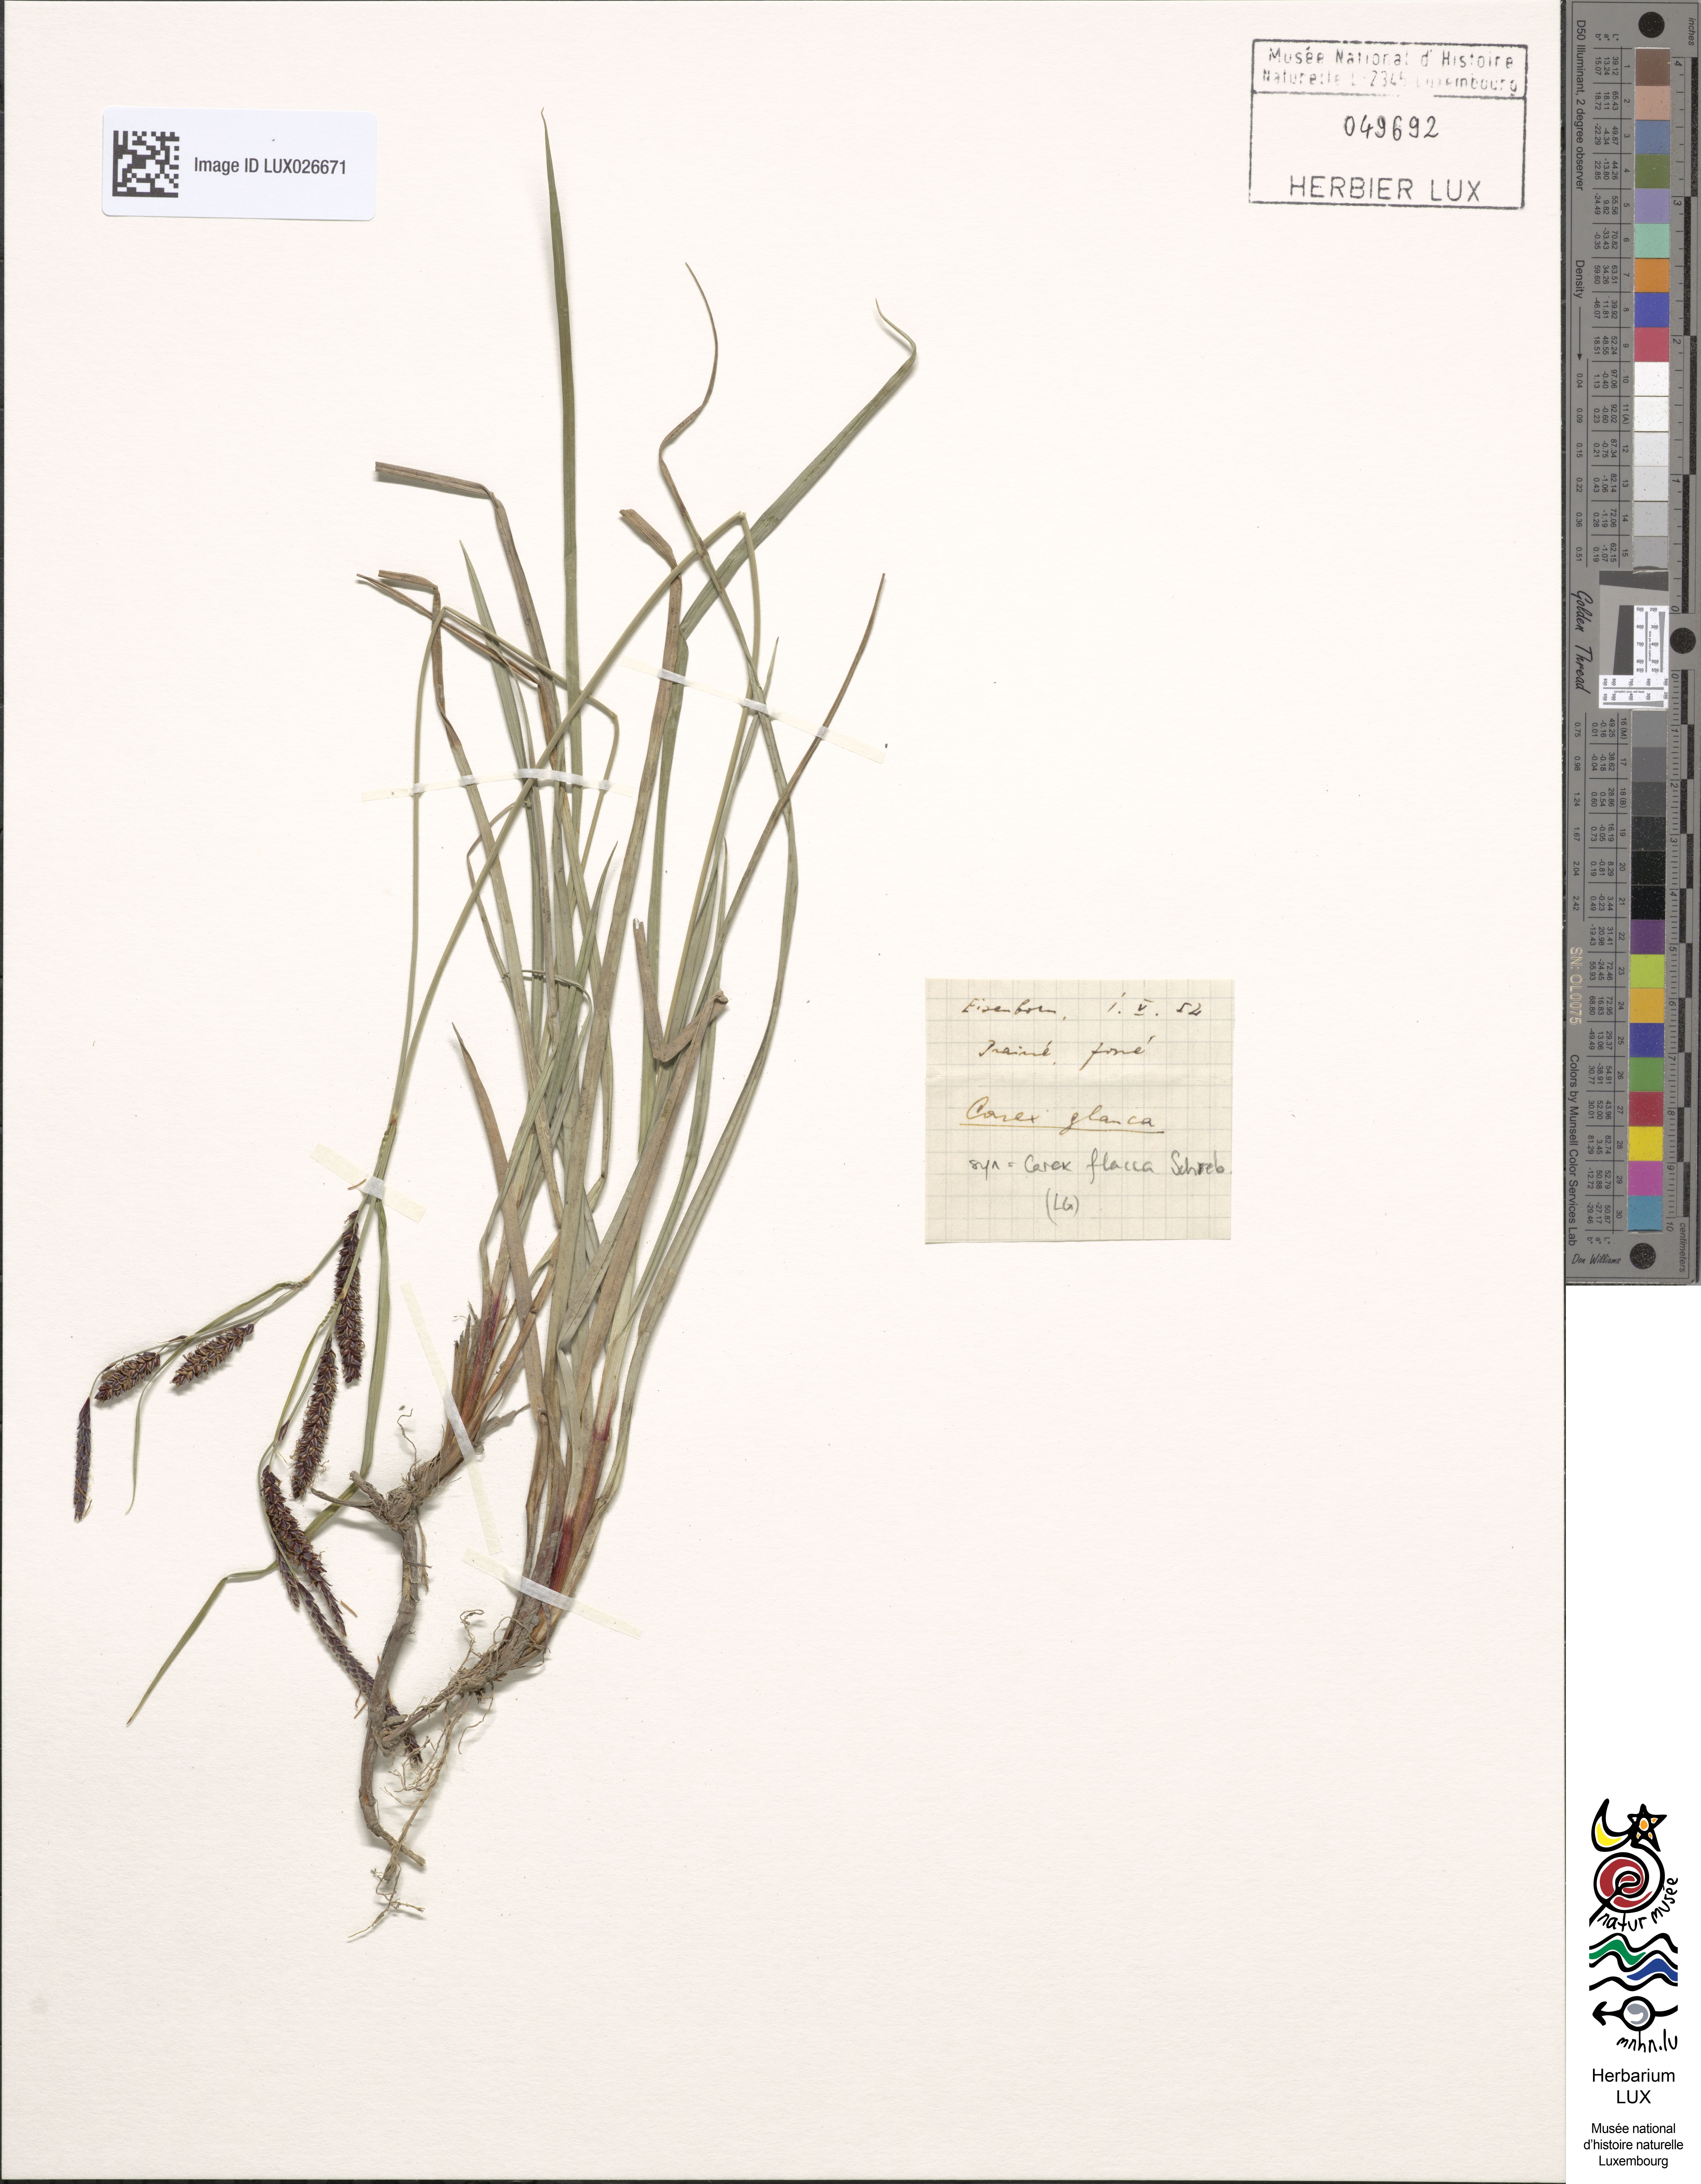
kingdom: Plantae
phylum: Tracheophyta
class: Liliopsida
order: Poales
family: Cyperaceae
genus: Carex
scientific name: Carex flacca
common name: Glaucous sedge
